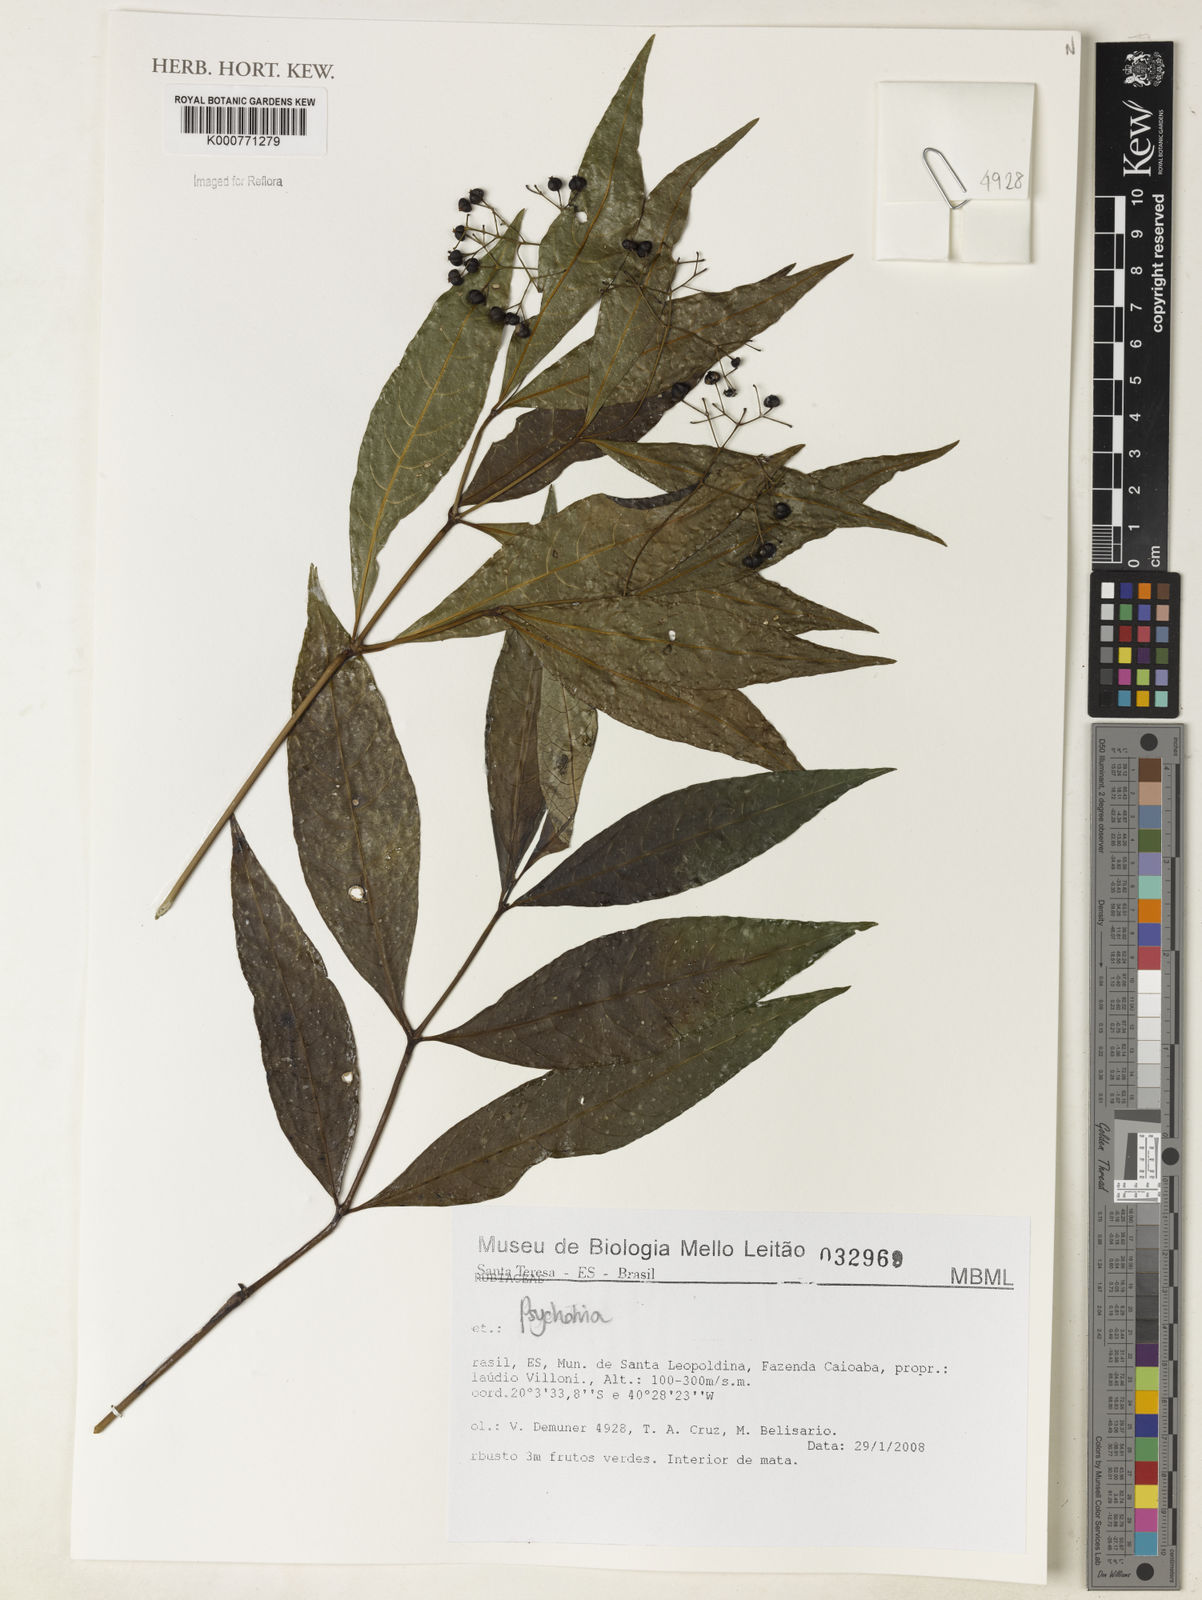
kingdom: Plantae
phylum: Tracheophyta
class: Magnoliopsida
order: Gentianales
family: Rubiaceae
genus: Psychotria
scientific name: Psychotria
